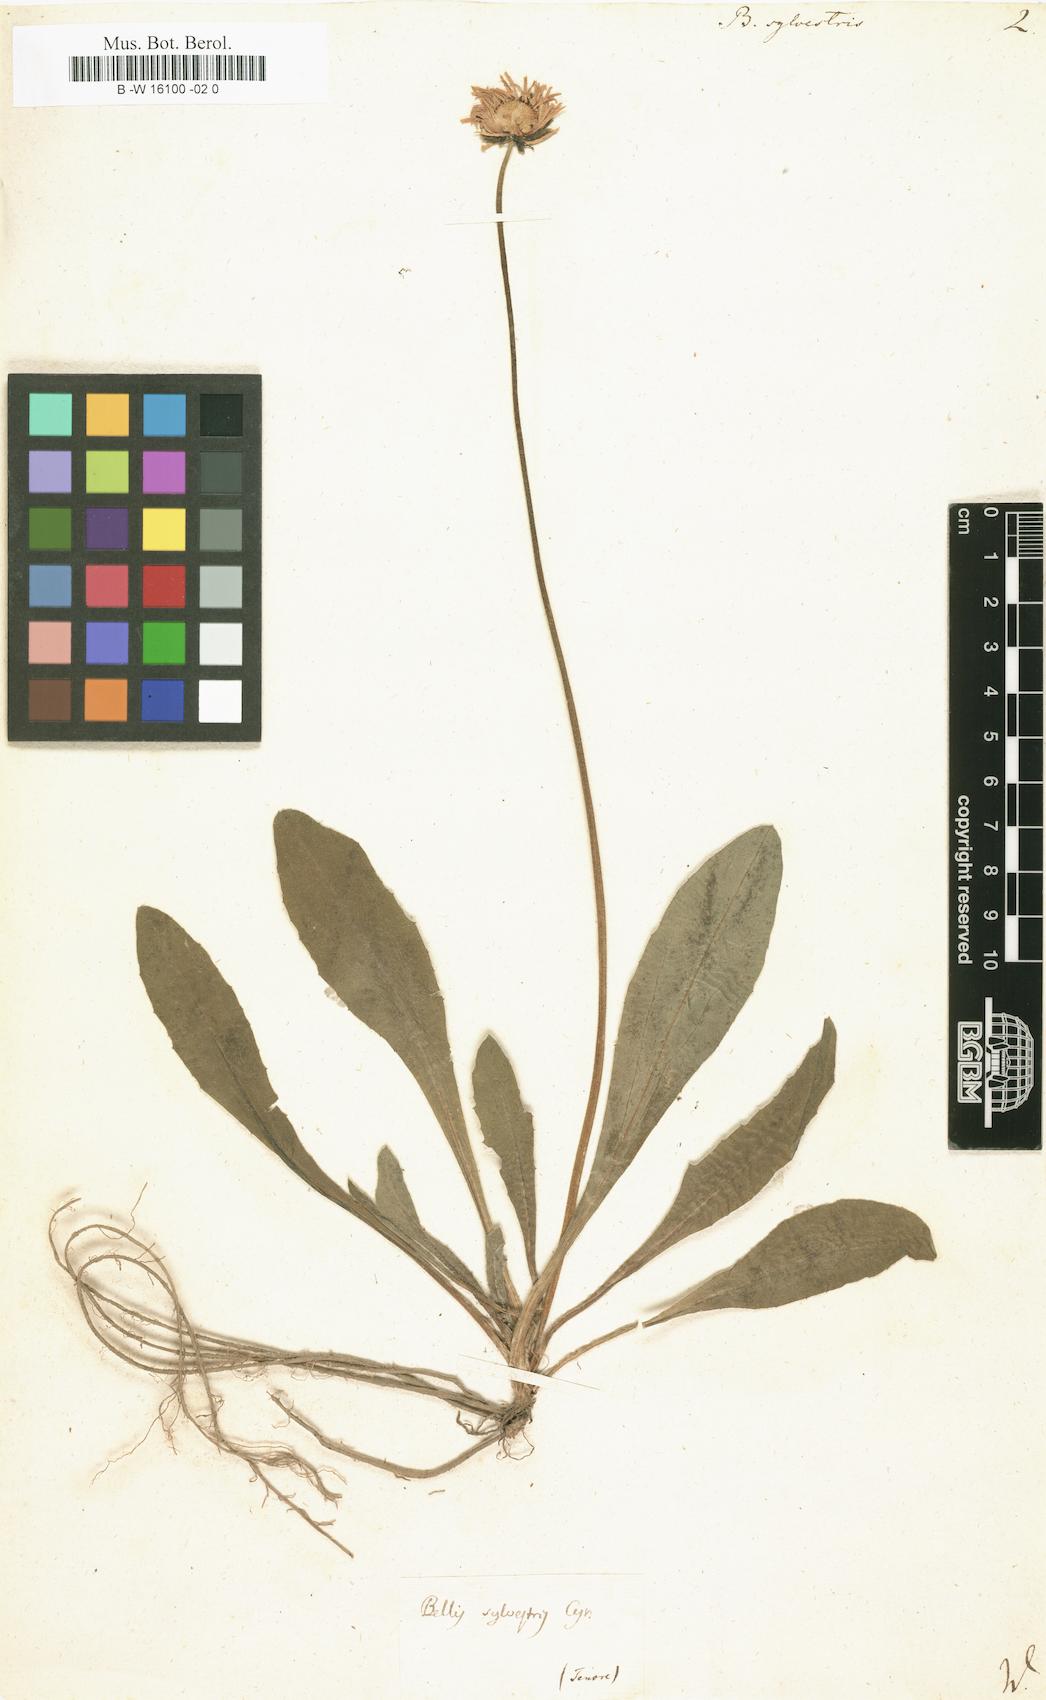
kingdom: Plantae
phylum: Tracheophyta
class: Magnoliopsida
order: Asterales
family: Asteraceae
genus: Bellis
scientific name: Bellis sylvestris
